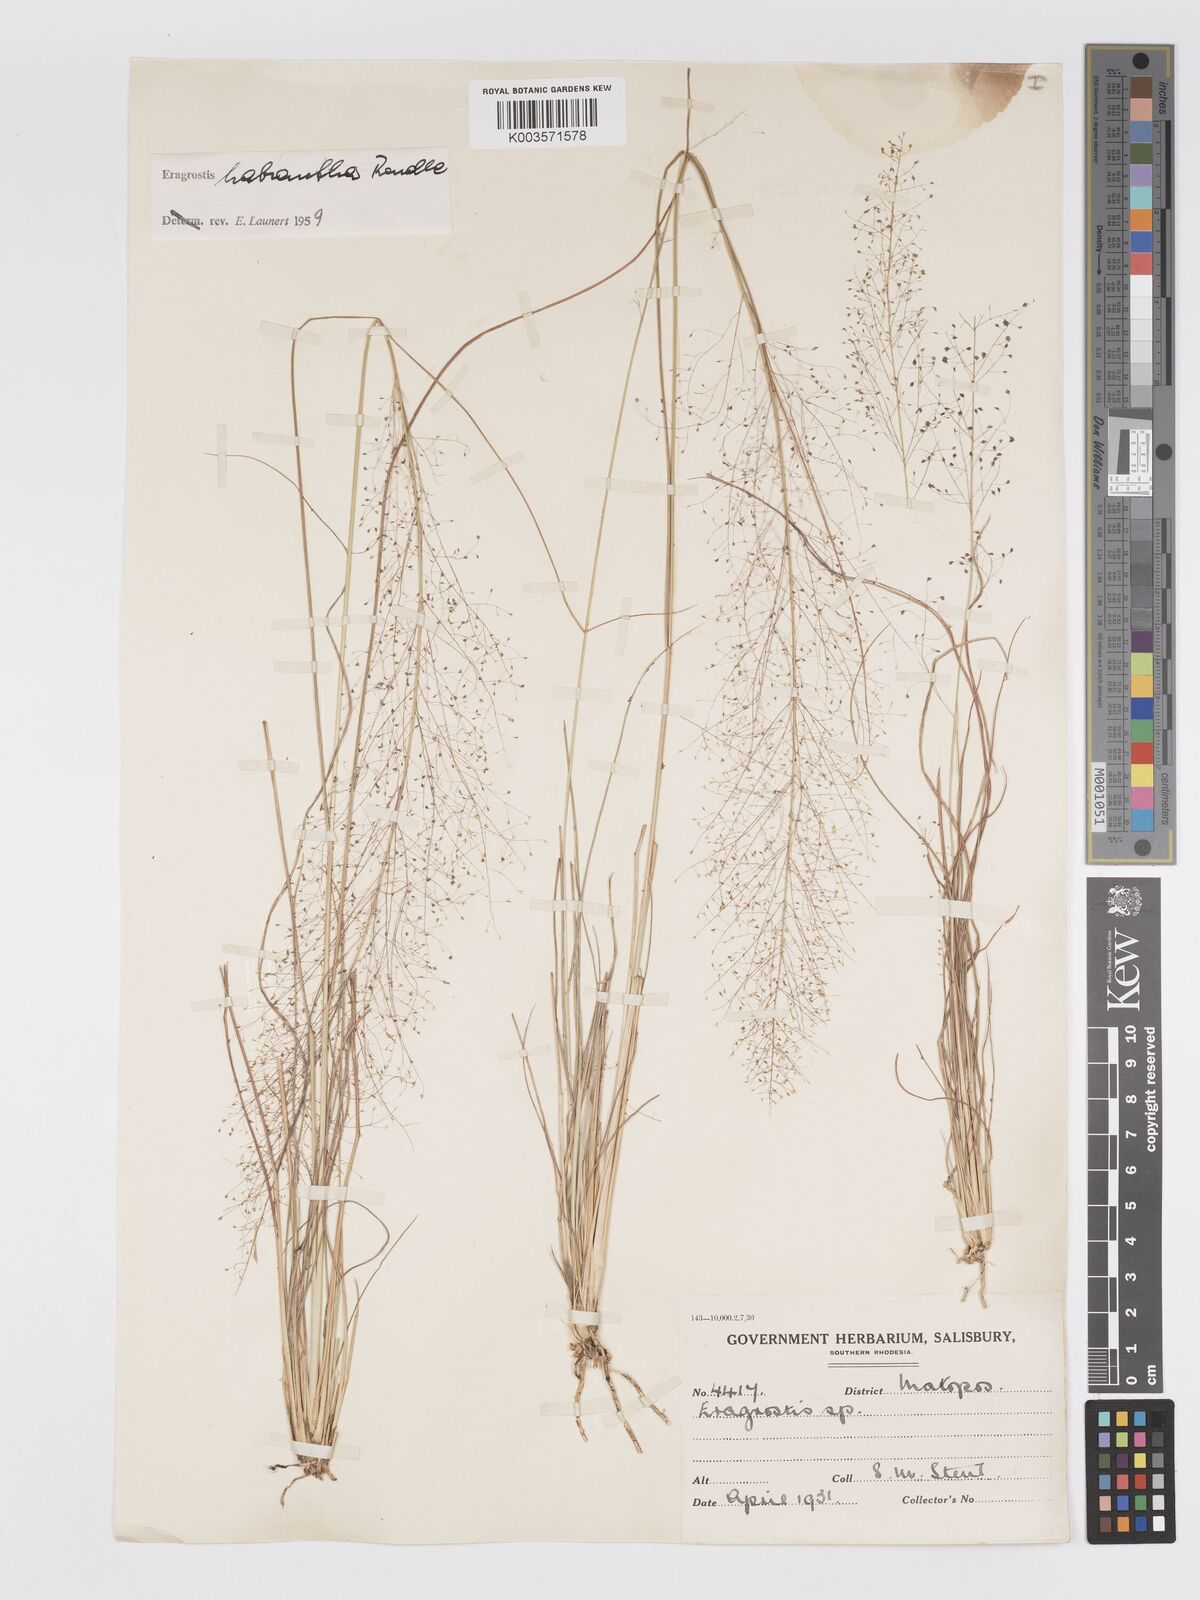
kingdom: Plantae
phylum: Tracheophyta
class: Liliopsida
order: Poales
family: Poaceae
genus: Eragrostis
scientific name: Eragrostis habrantha
